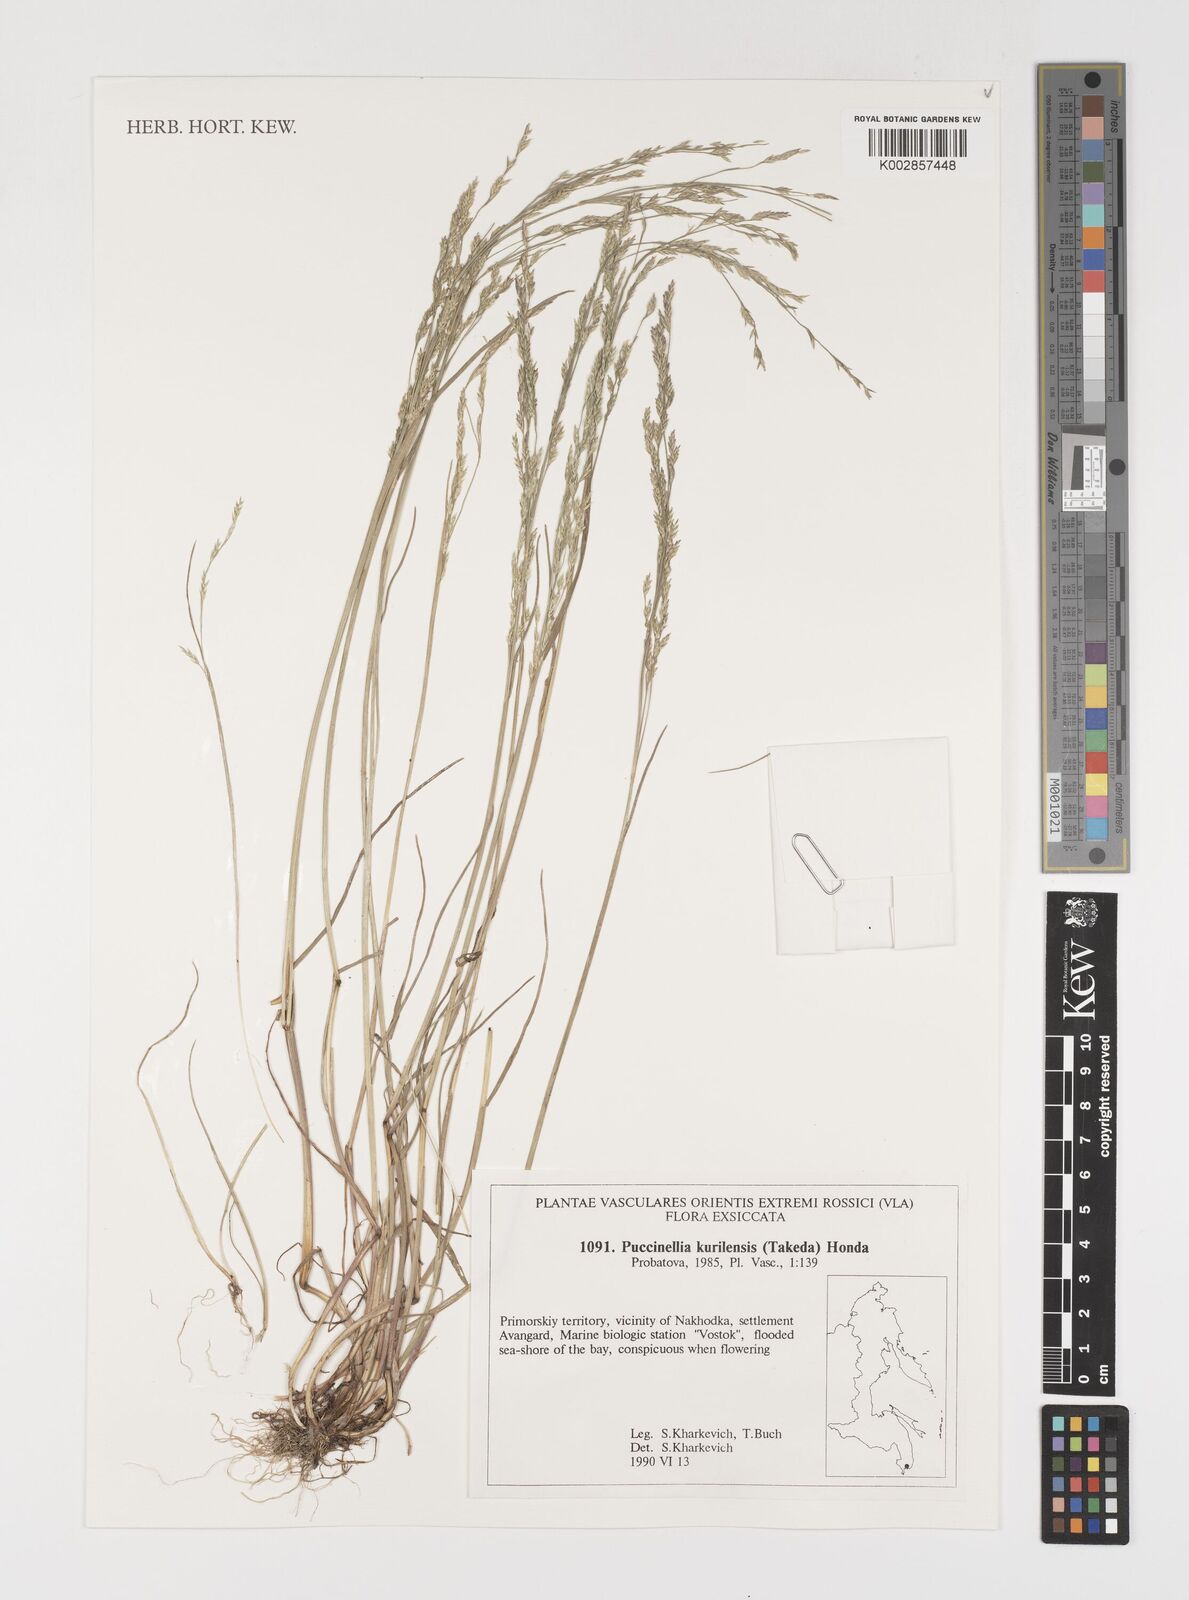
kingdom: Plantae
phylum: Tracheophyta
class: Liliopsida
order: Poales
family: Poaceae
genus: Puccinellia
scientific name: Puccinellia
